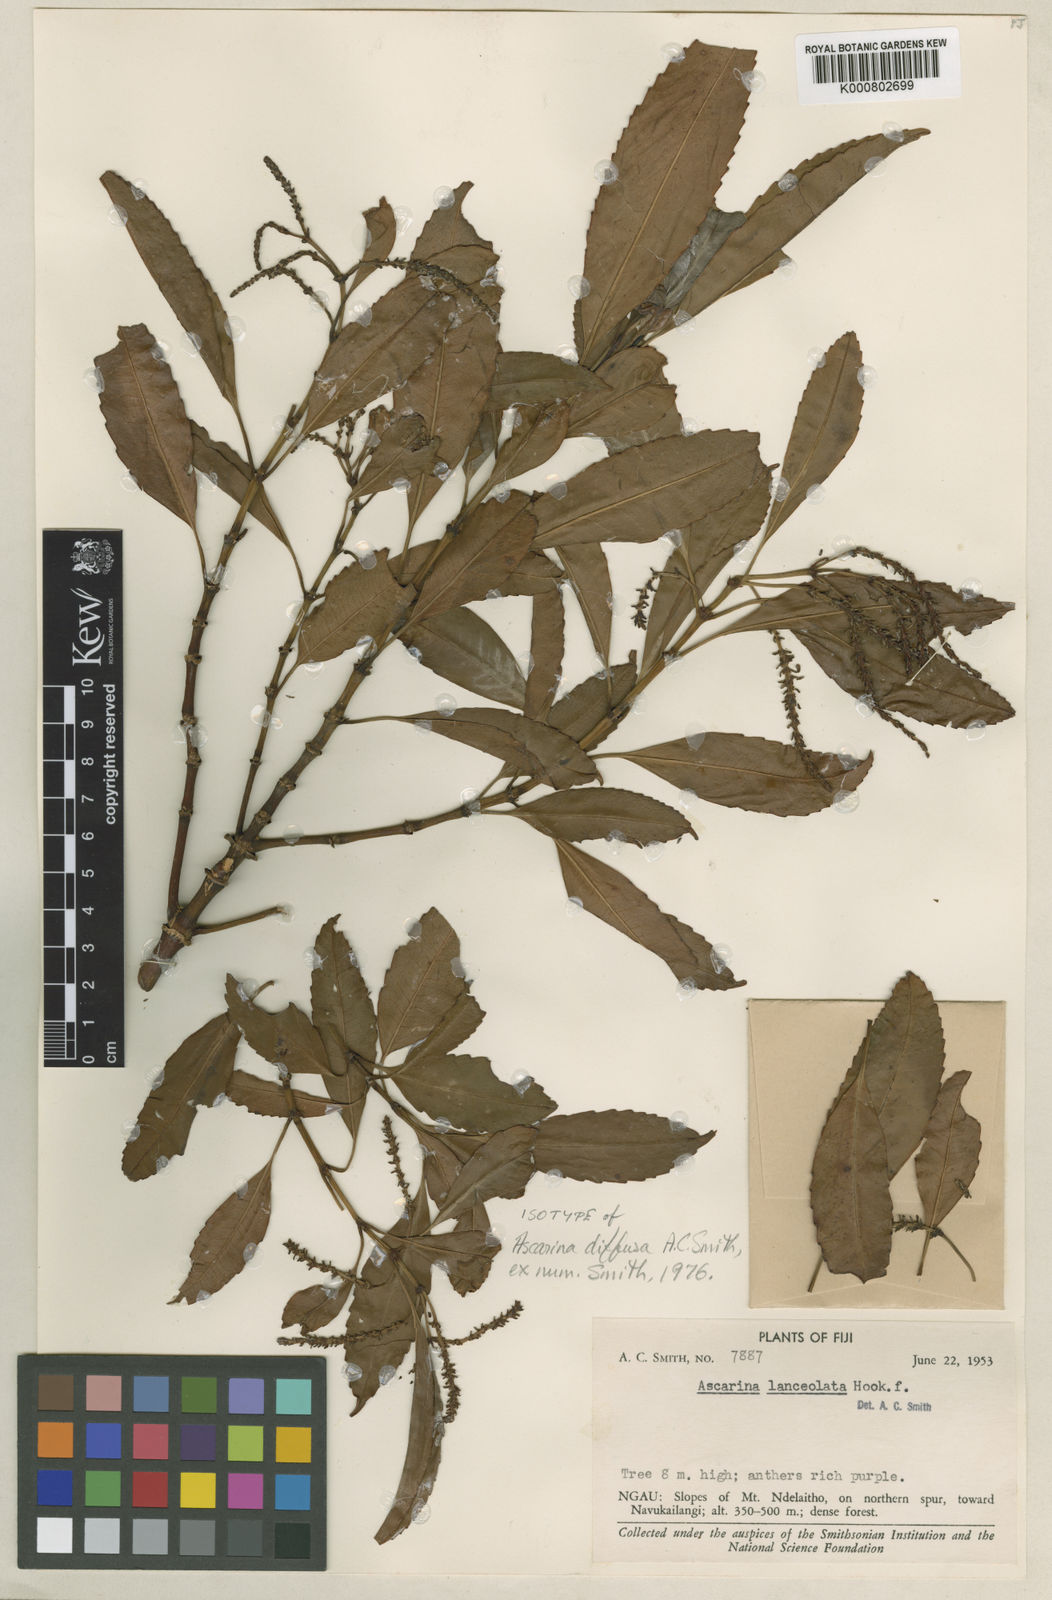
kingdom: Plantae
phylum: Tracheophyta
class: Magnoliopsida
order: Chloranthales
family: Chloranthaceae
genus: Ascarina
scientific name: Ascarina diffusa
